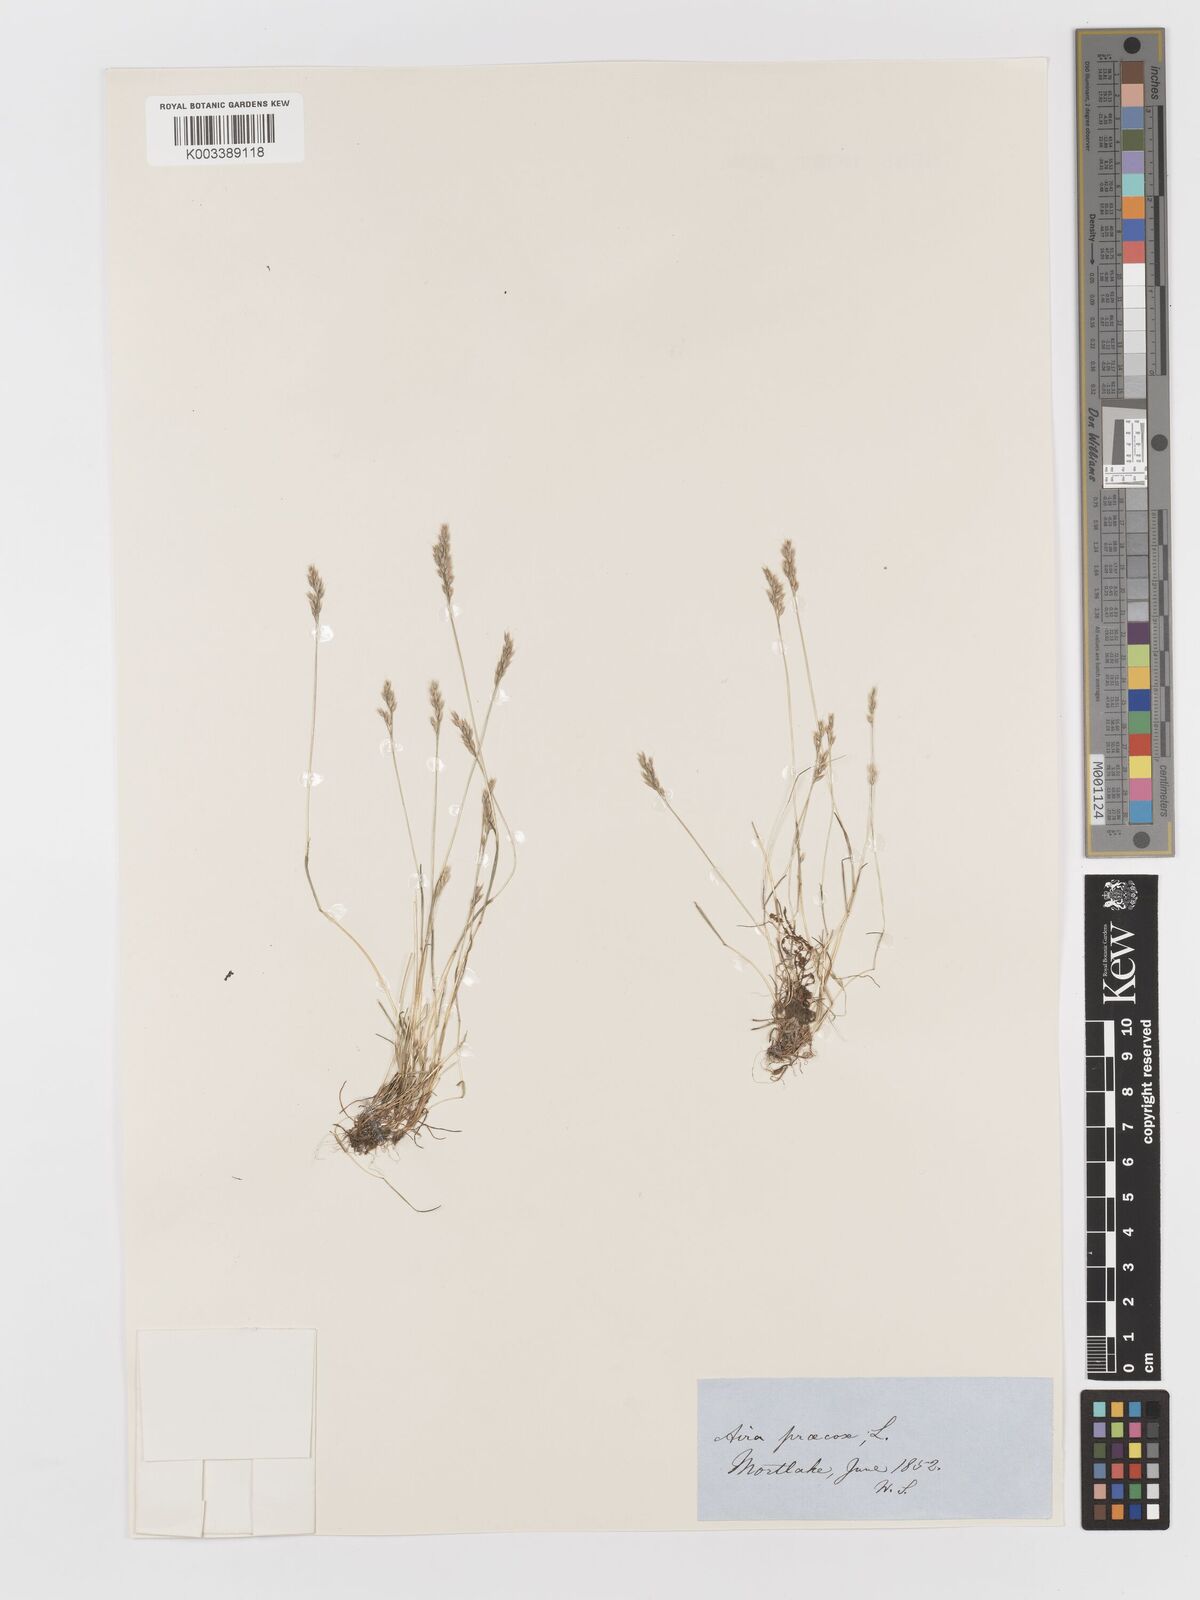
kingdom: Plantae
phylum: Tracheophyta
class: Liliopsida
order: Poales
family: Poaceae
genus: Aira
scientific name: Aira praecox
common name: Early hair-grass
